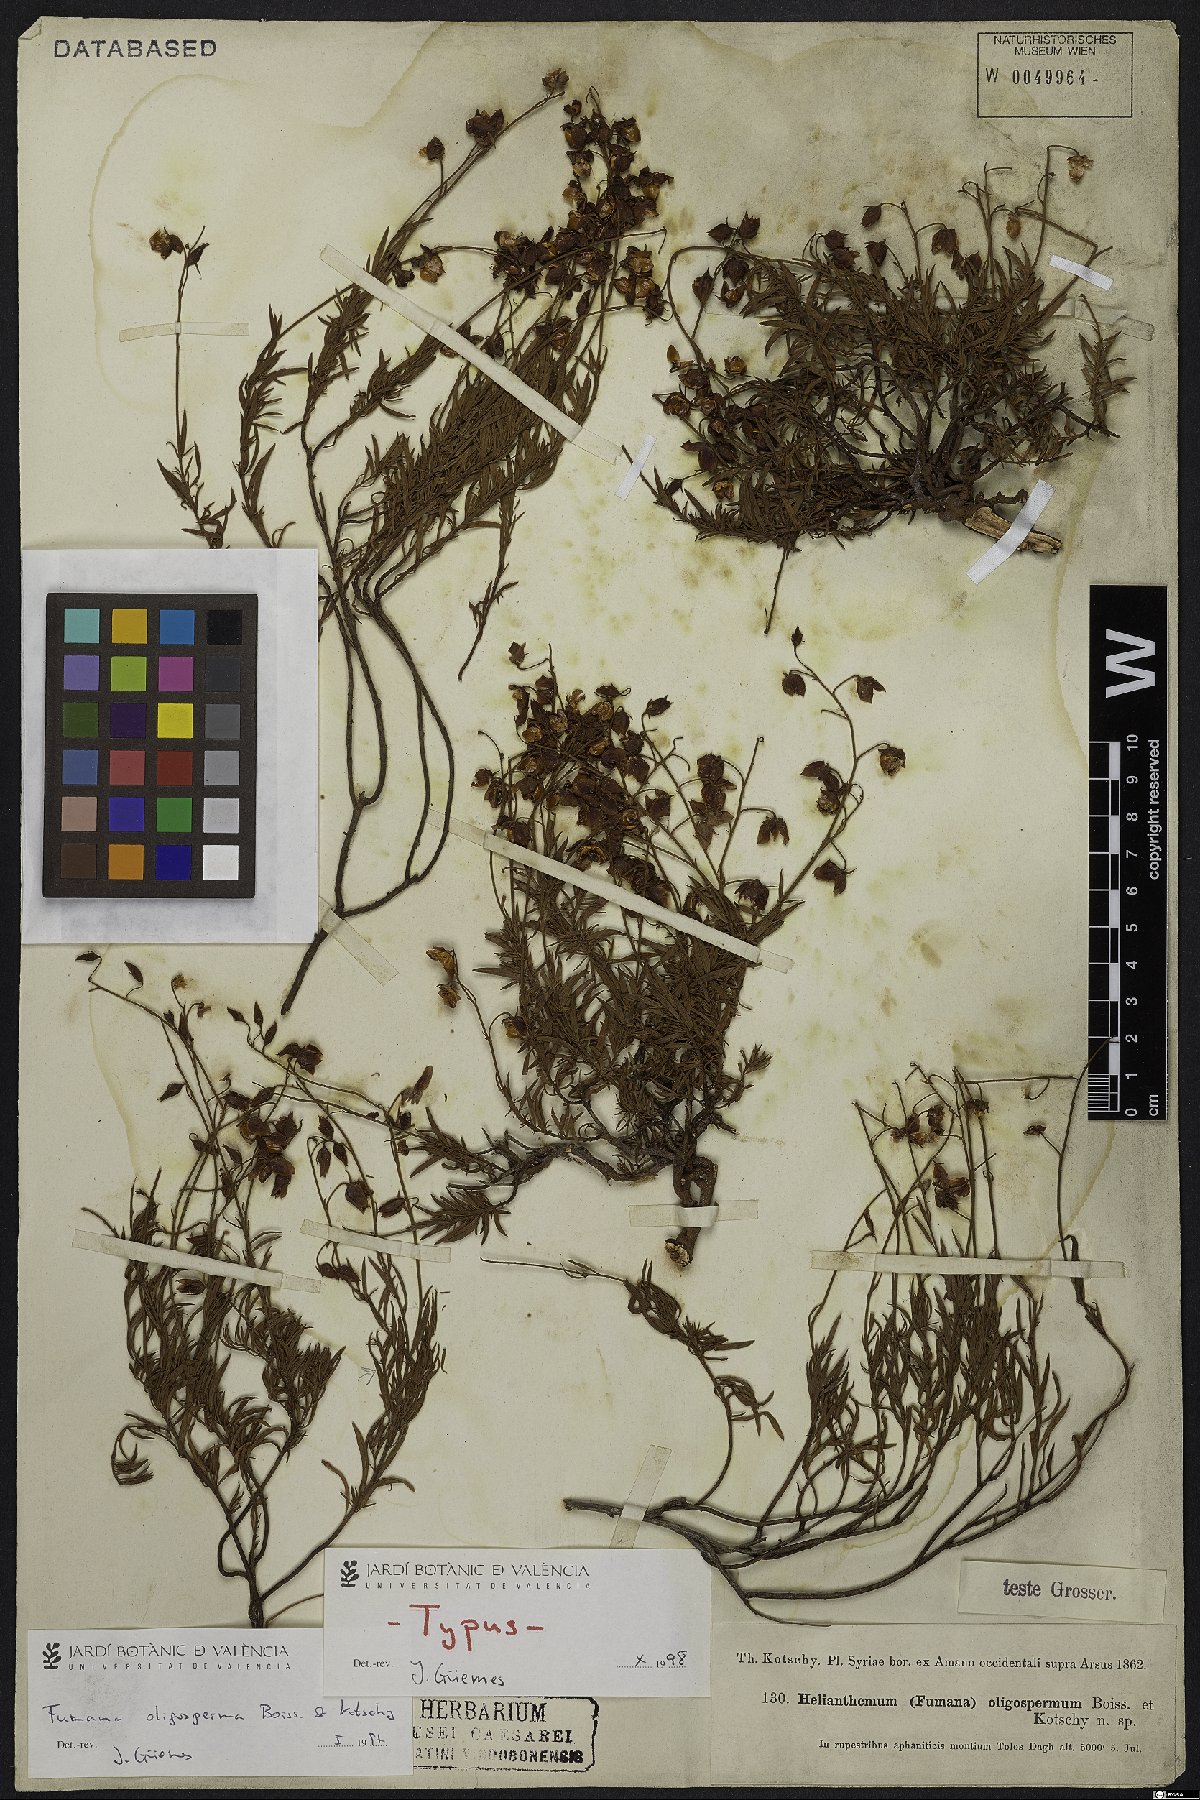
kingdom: Plantae
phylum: Tracheophyta
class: Magnoliopsida
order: Malvales
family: Cistaceae
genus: Fumana
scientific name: Fumana oligosperma
